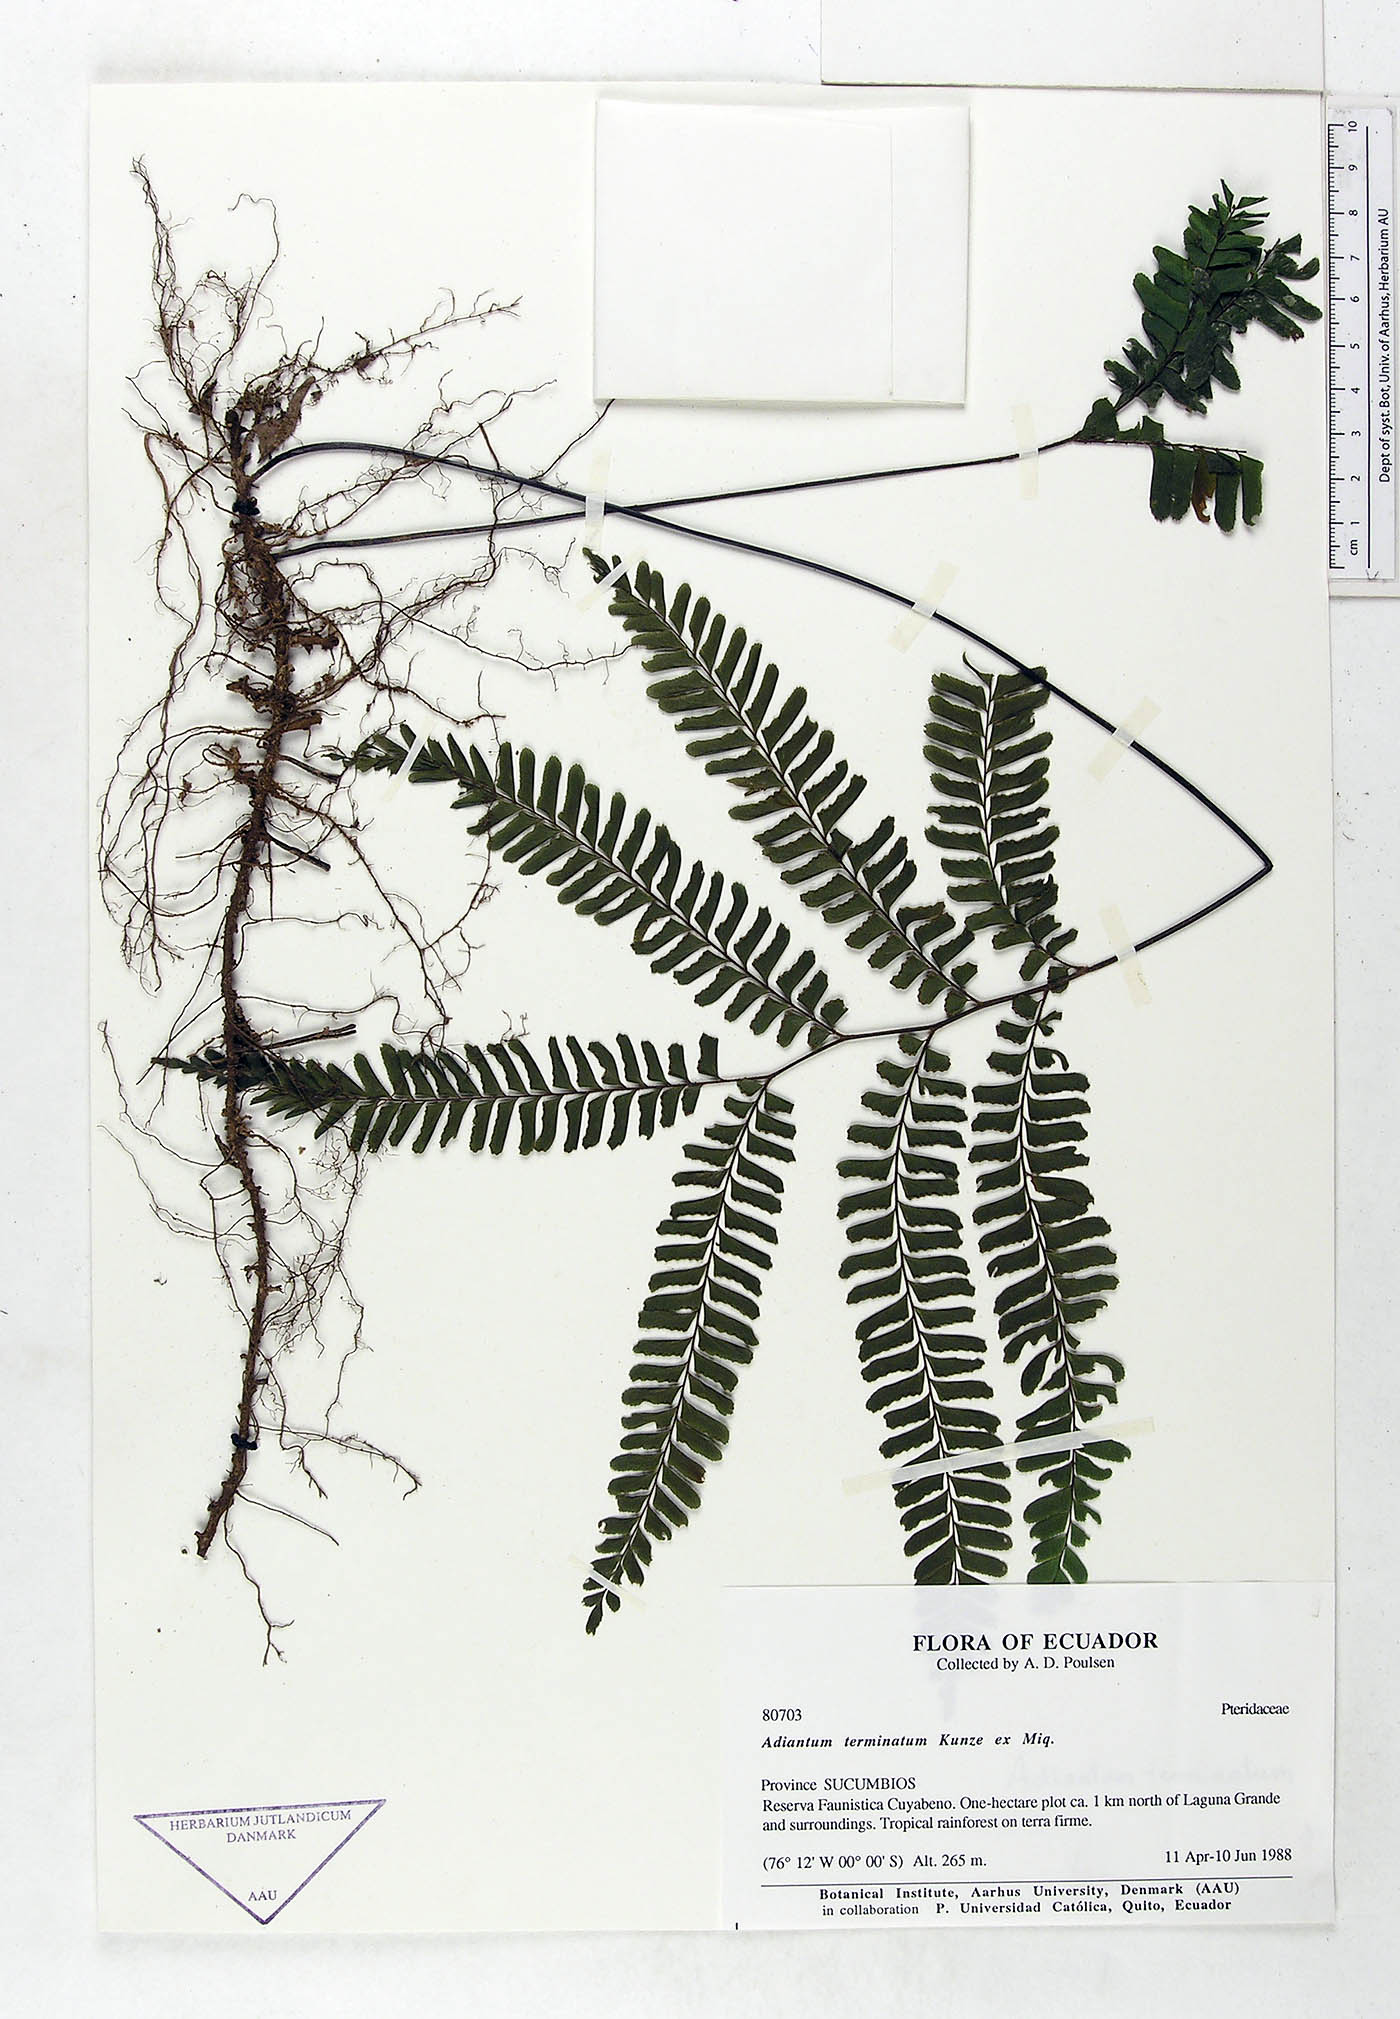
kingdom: Plantae
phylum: Tracheophyta
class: Polypodiopsida
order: Polypodiales
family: Pteridaceae
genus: Adiantum
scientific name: Adiantum terminatum
